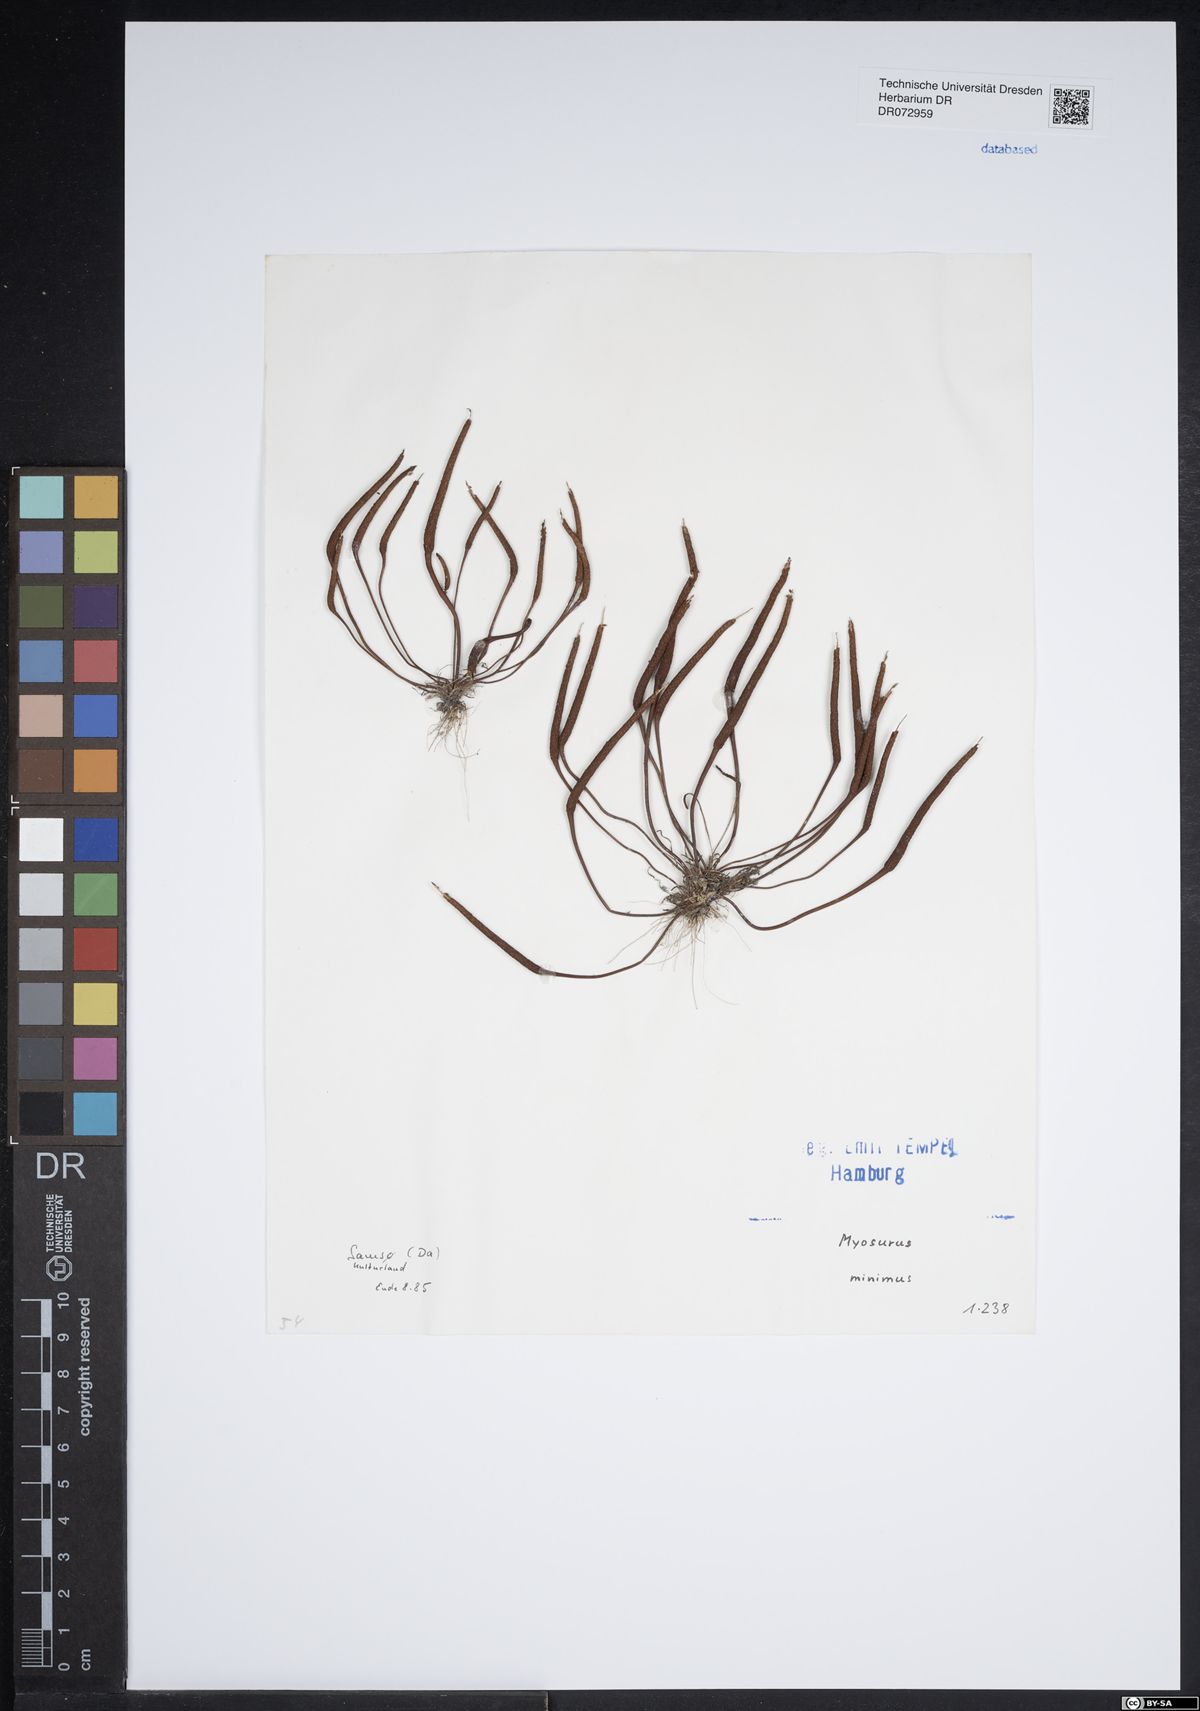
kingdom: Plantae
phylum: Tracheophyta
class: Magnoliopsida
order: Ranunculales
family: Ranunculaceae
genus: Myosurus
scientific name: Myosurus minimus
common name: Mousetail
